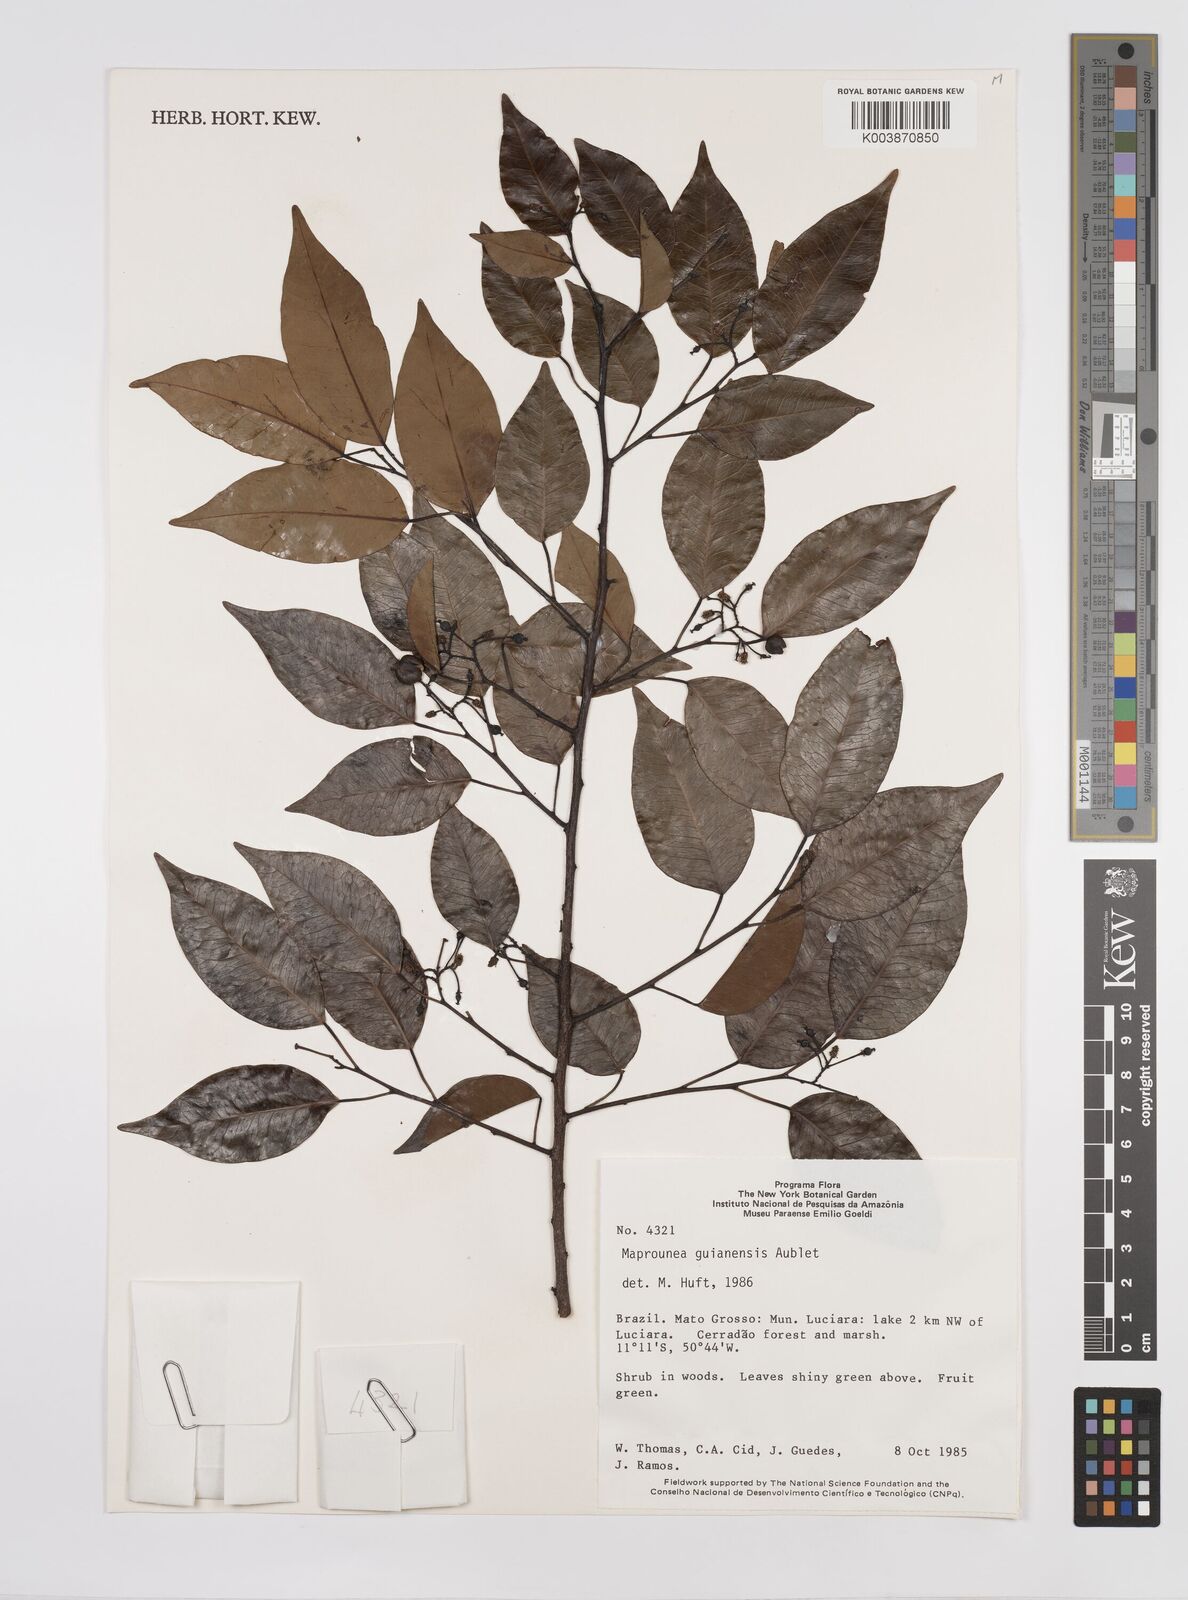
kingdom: Plantae
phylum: Tracheophyta
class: Magnoliopsida
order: Malpighiales
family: Euphorbiaceae
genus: Maprounea
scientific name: Maprounea guianensis
